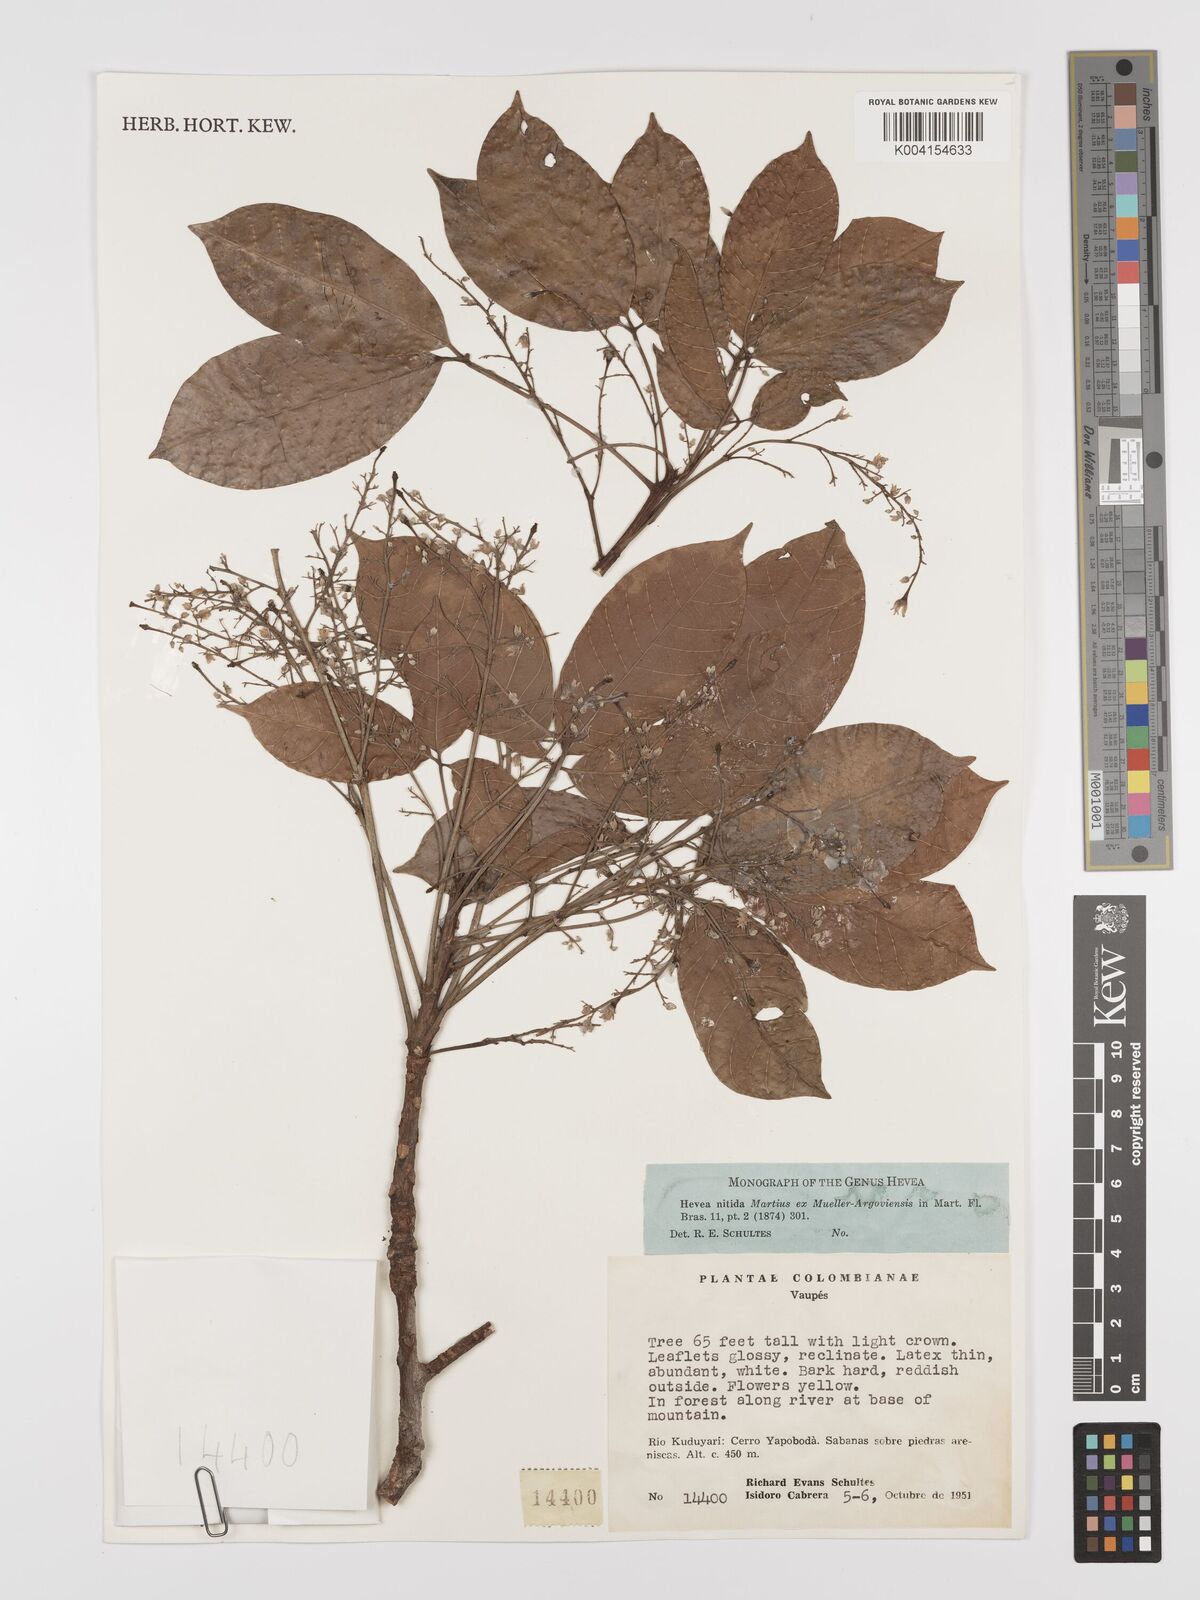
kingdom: Plantae
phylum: Tracheophyta
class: Magnoliopsida
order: Malpighiales
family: Euphorbiaceae
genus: Hevea
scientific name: Hevea nitida
